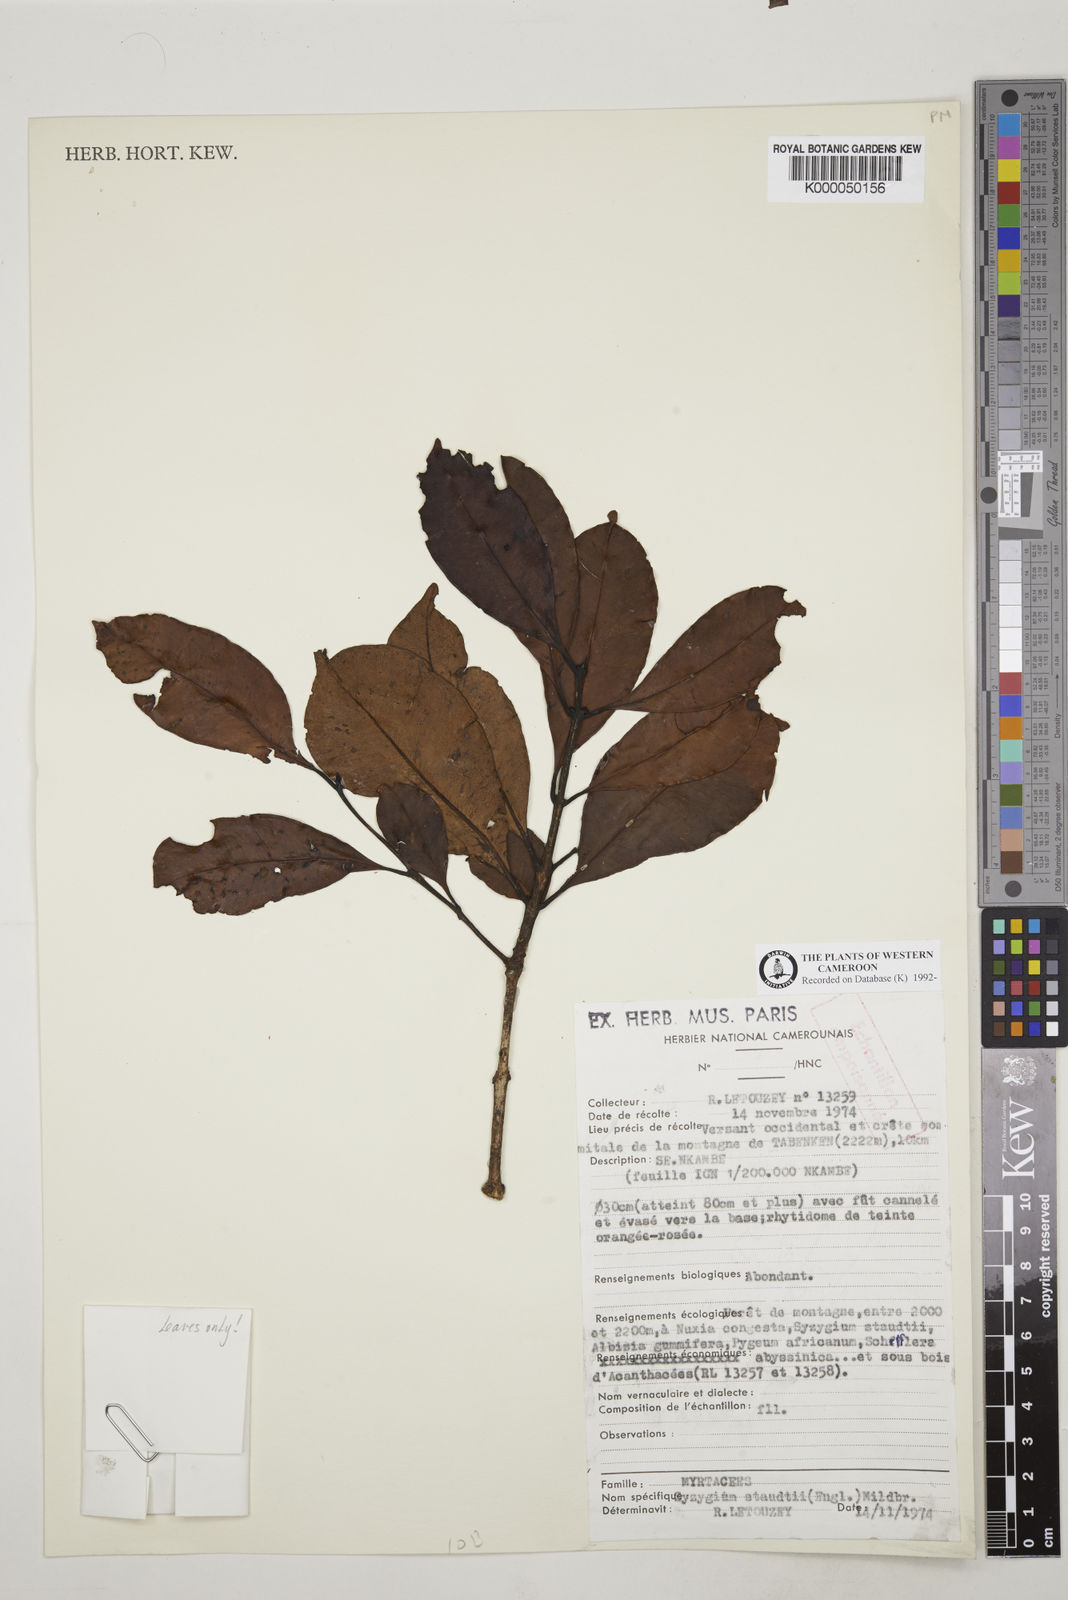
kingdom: Plantae
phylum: Tracheophyta
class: Magnoliopsida
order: Myrtales
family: Myrtaceae
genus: Syzygium
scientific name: Syzygium staudtii
